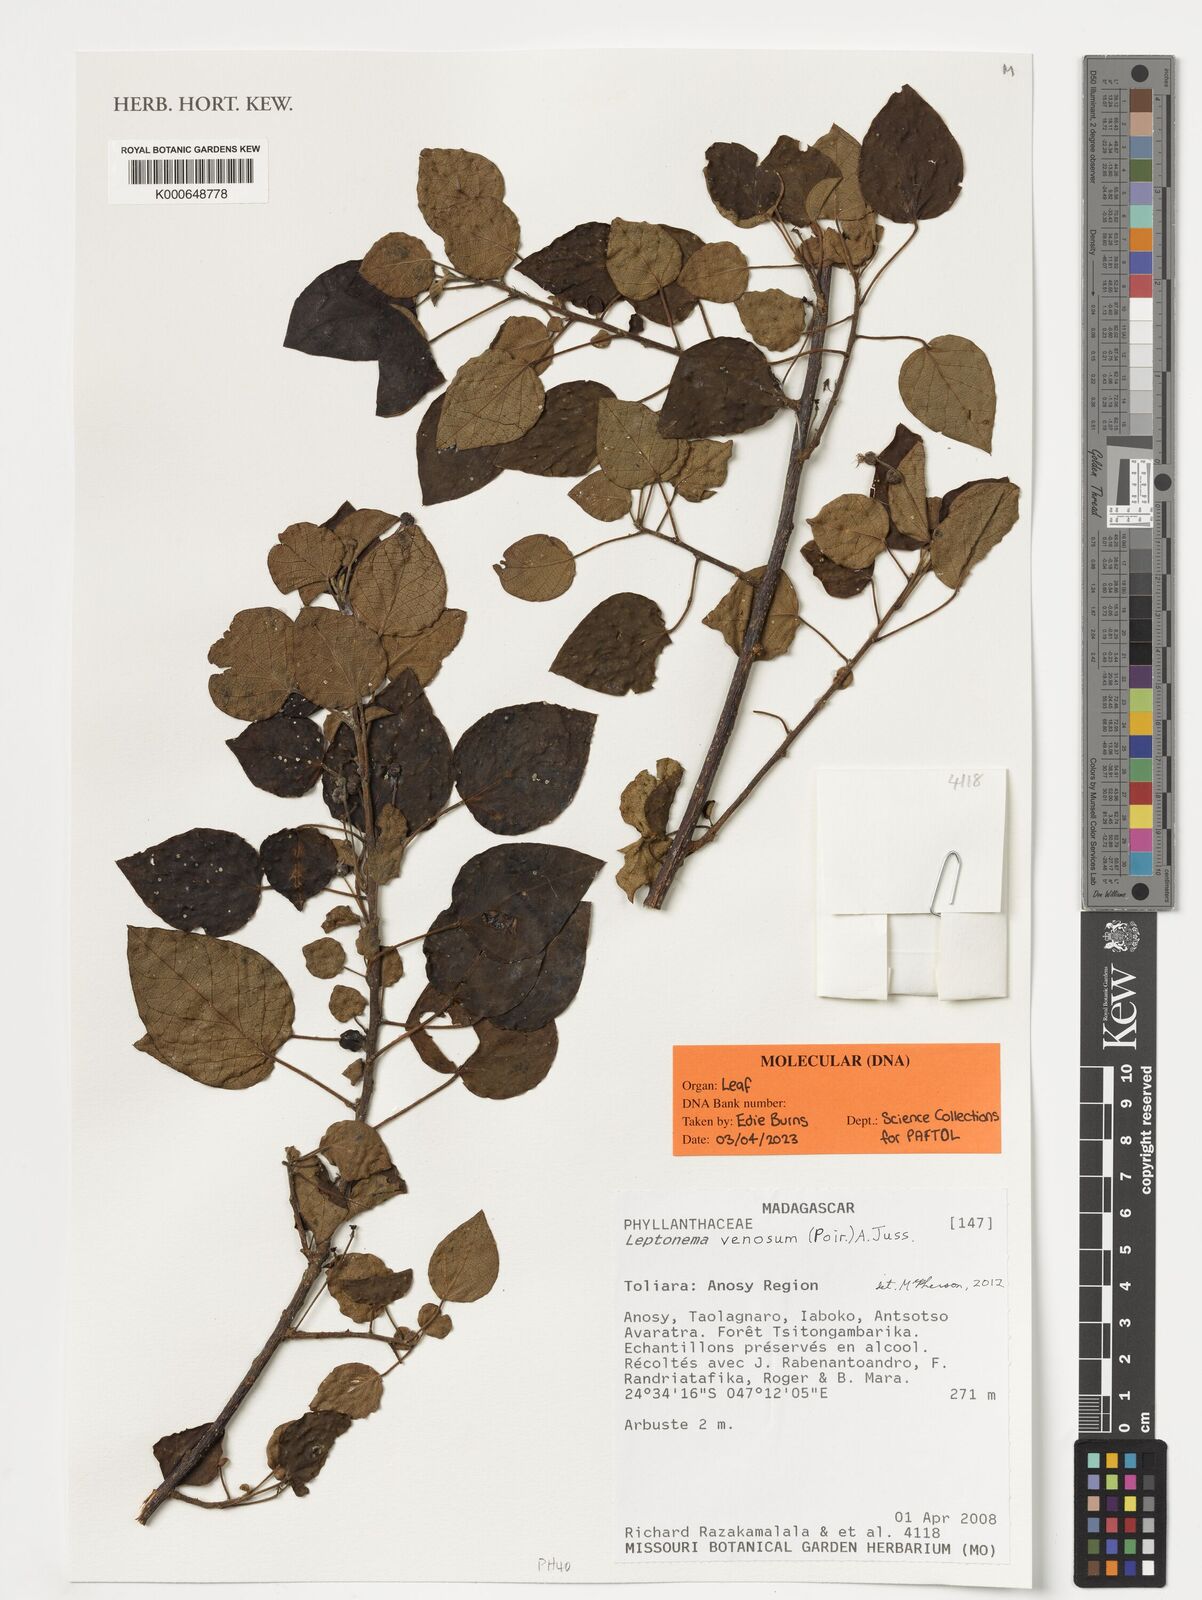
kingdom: Plantae
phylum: Tracheophyta
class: Magnoliopsida
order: Malpighiales
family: Phyllanthaceae
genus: Leptonema
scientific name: Leptonema venosum
